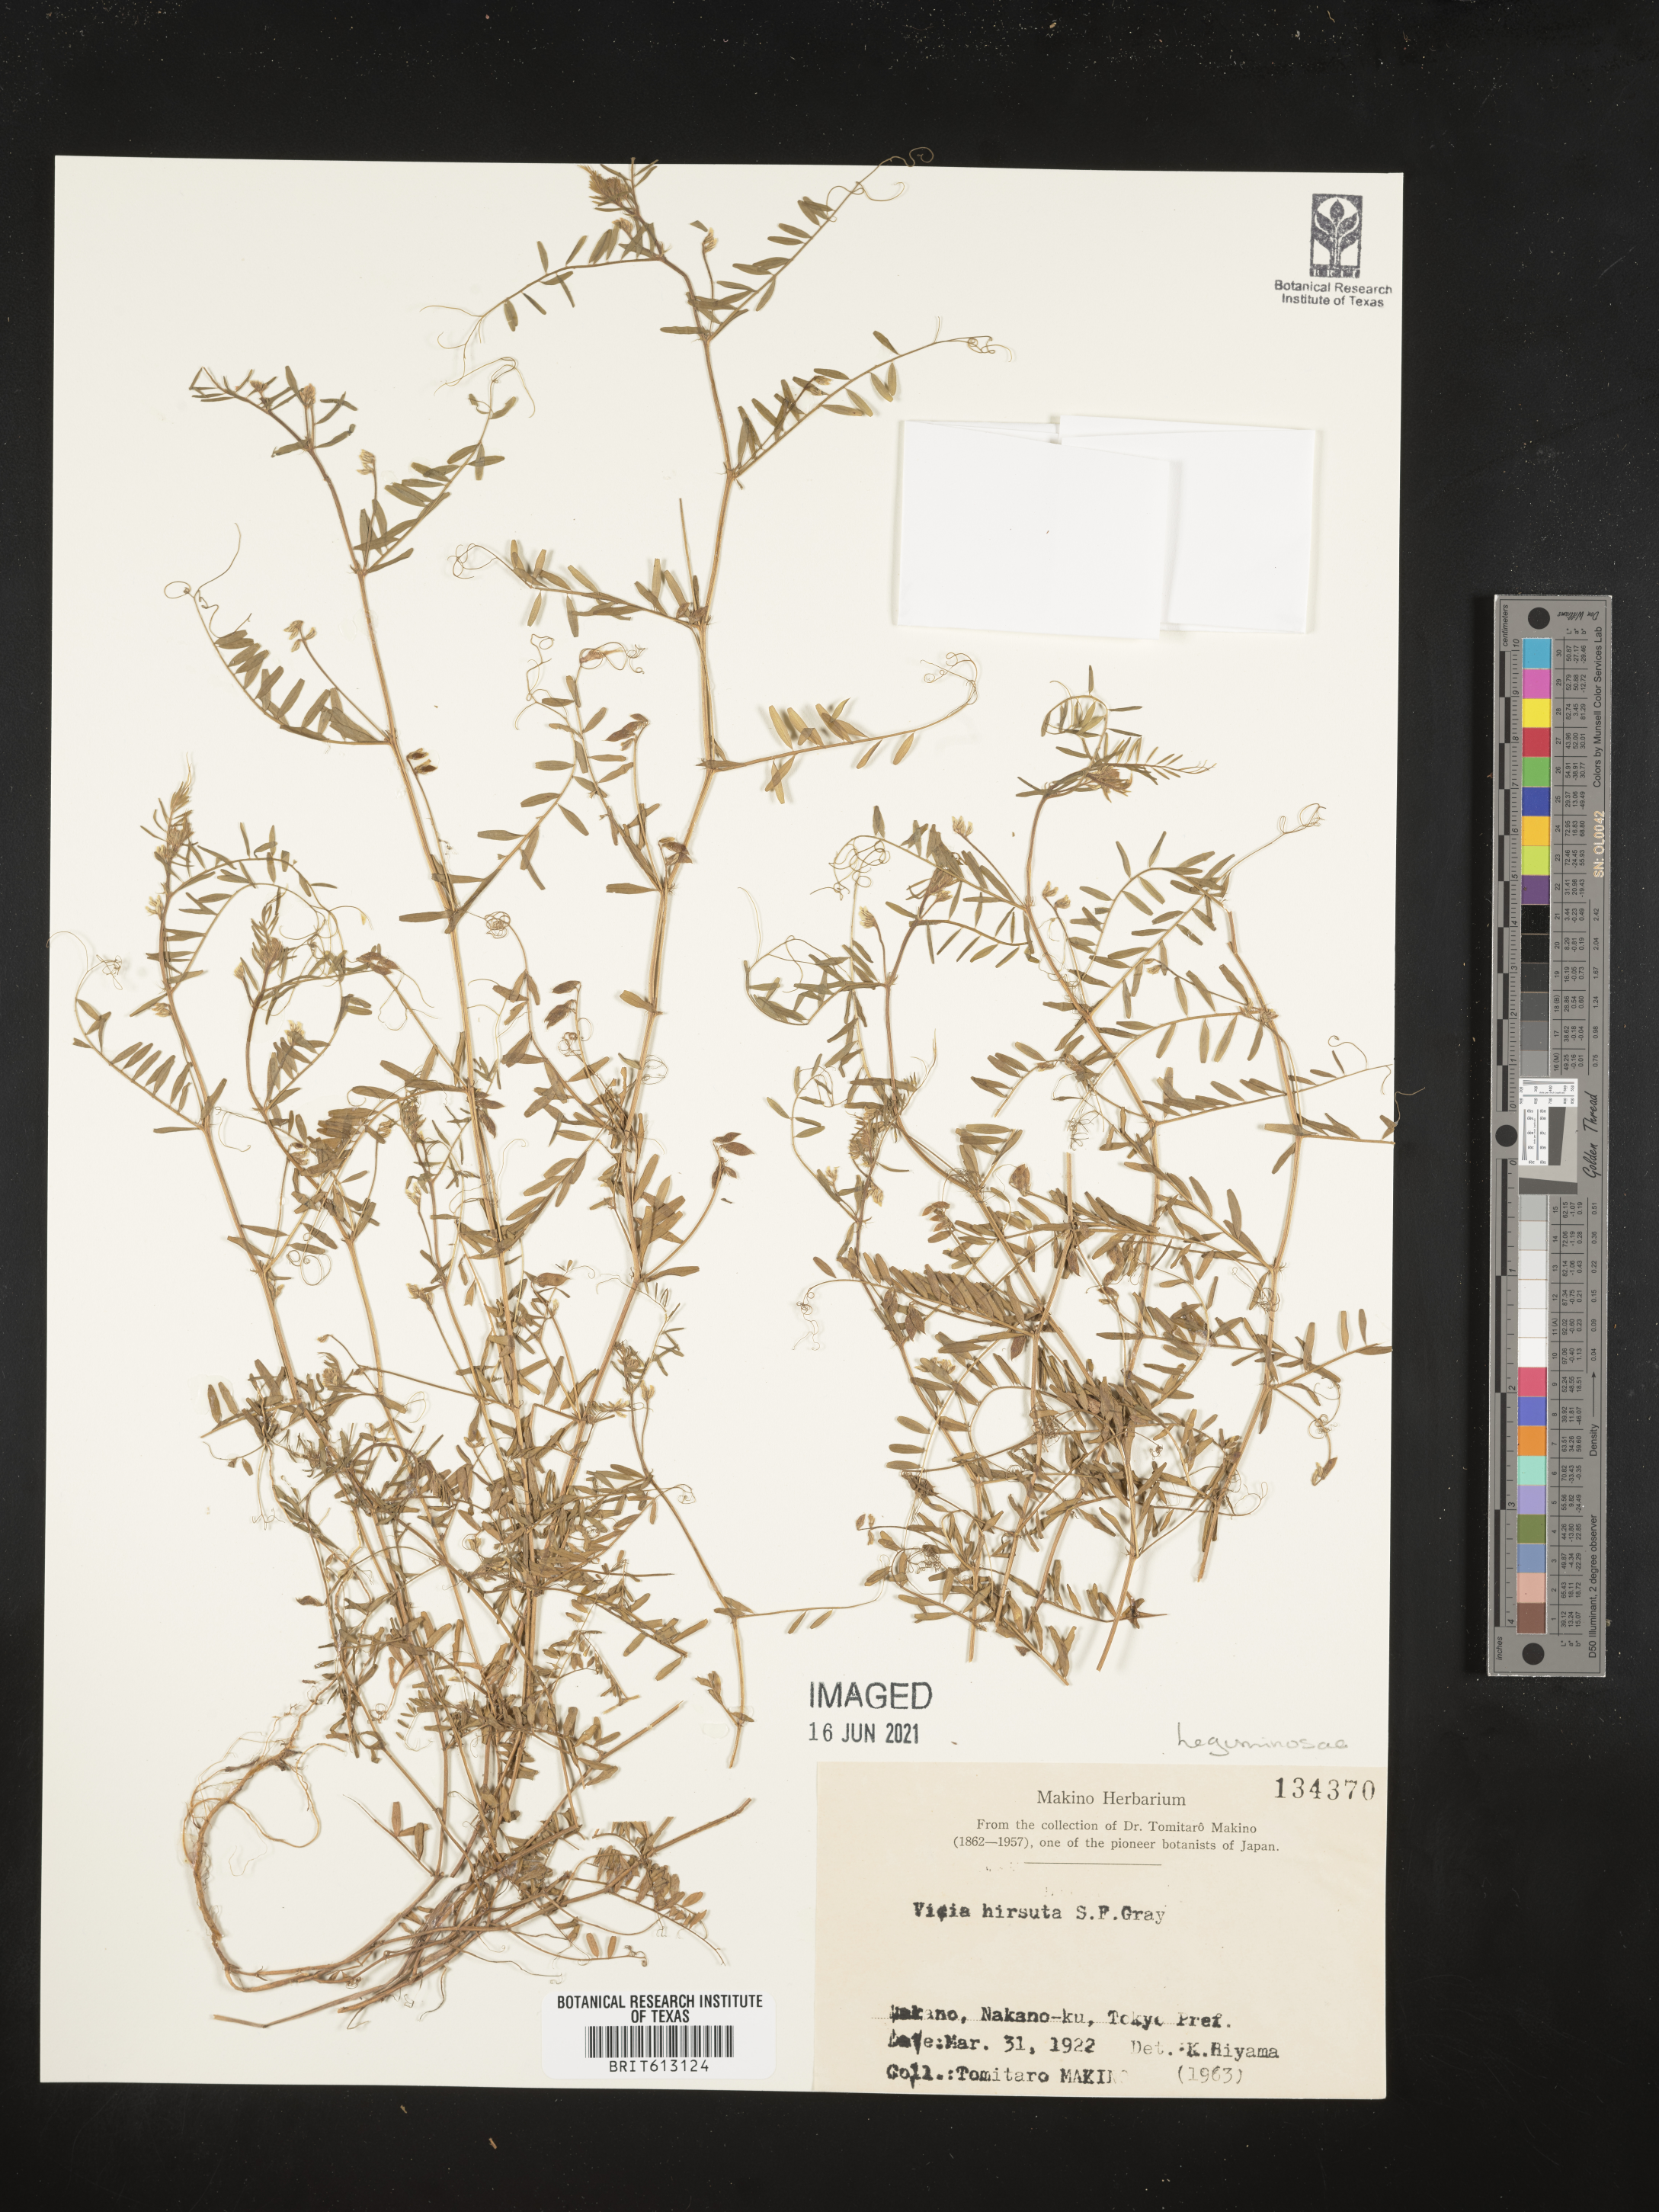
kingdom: Plantae
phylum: Tracheophyta
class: Magnoliopsida
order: Fabales
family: Fabaceae
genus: Vicia
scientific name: Vicia hirsuta
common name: Tiny vetch
